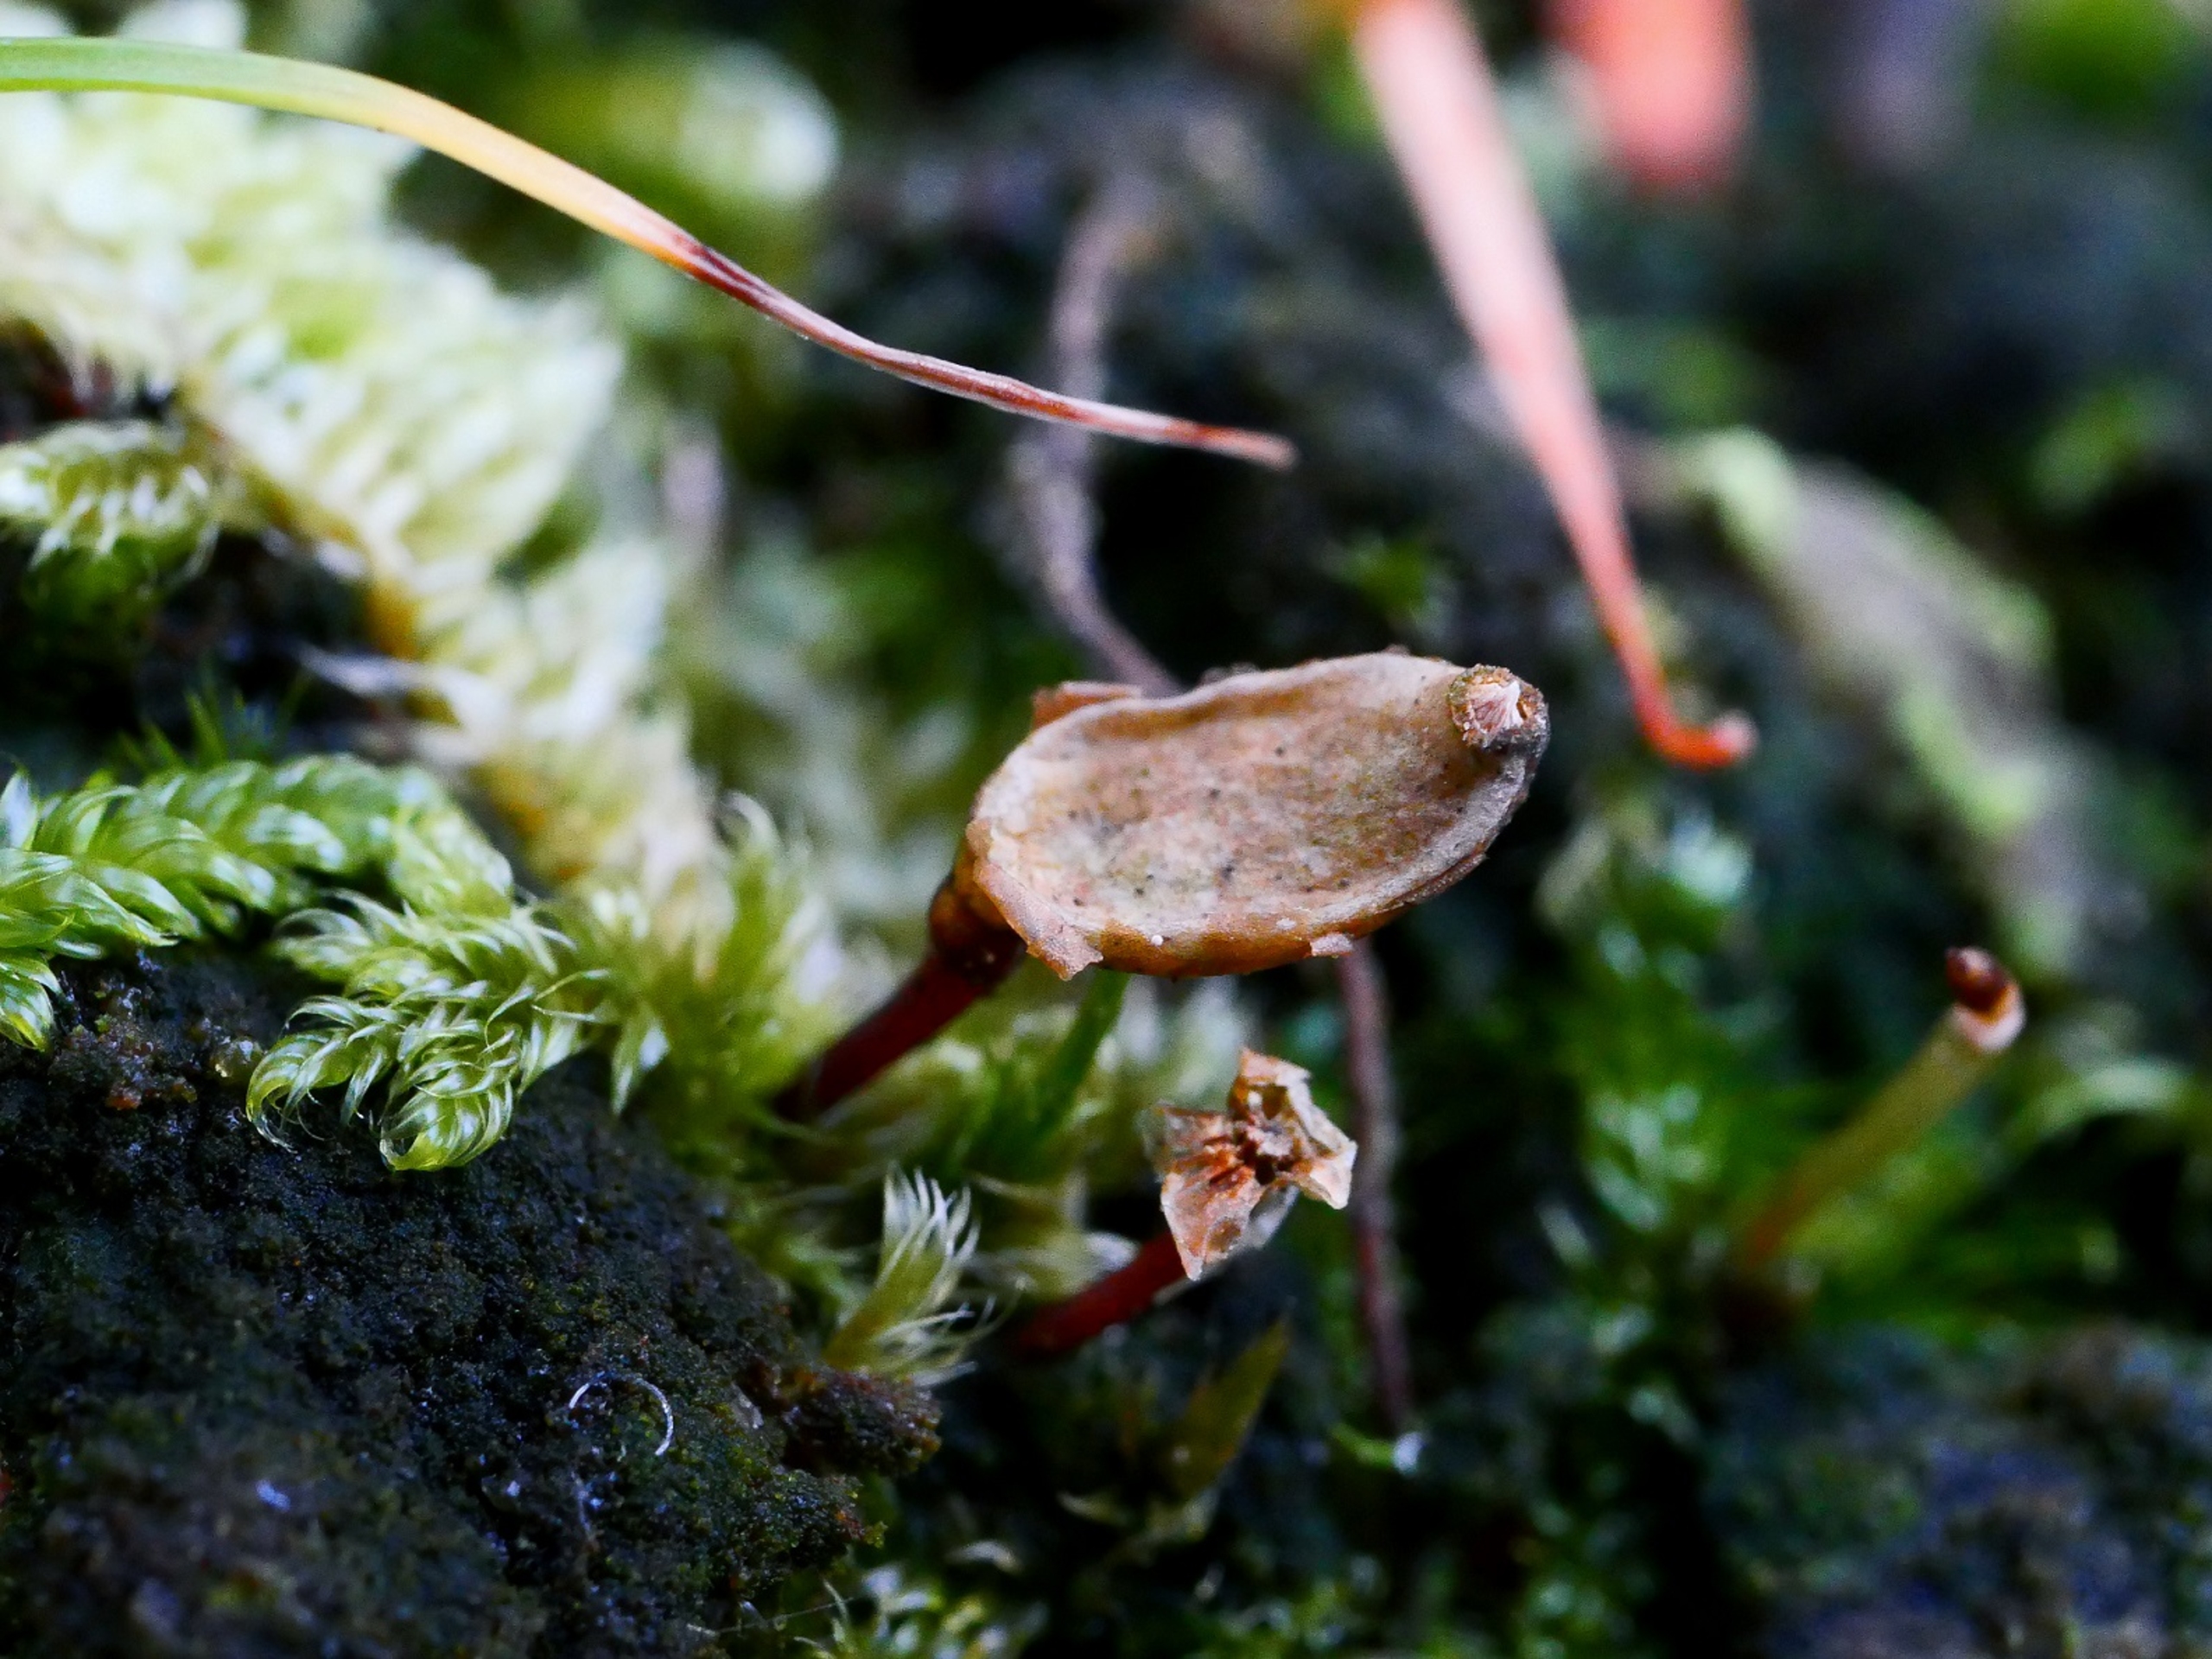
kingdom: Plantae
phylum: Bryophyta
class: Bryopsida
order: Buxbaumiales
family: Buxbaumiaceae
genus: Buxbaumia
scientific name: Buxbaumia viridis
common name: Grøn buxbaumia
